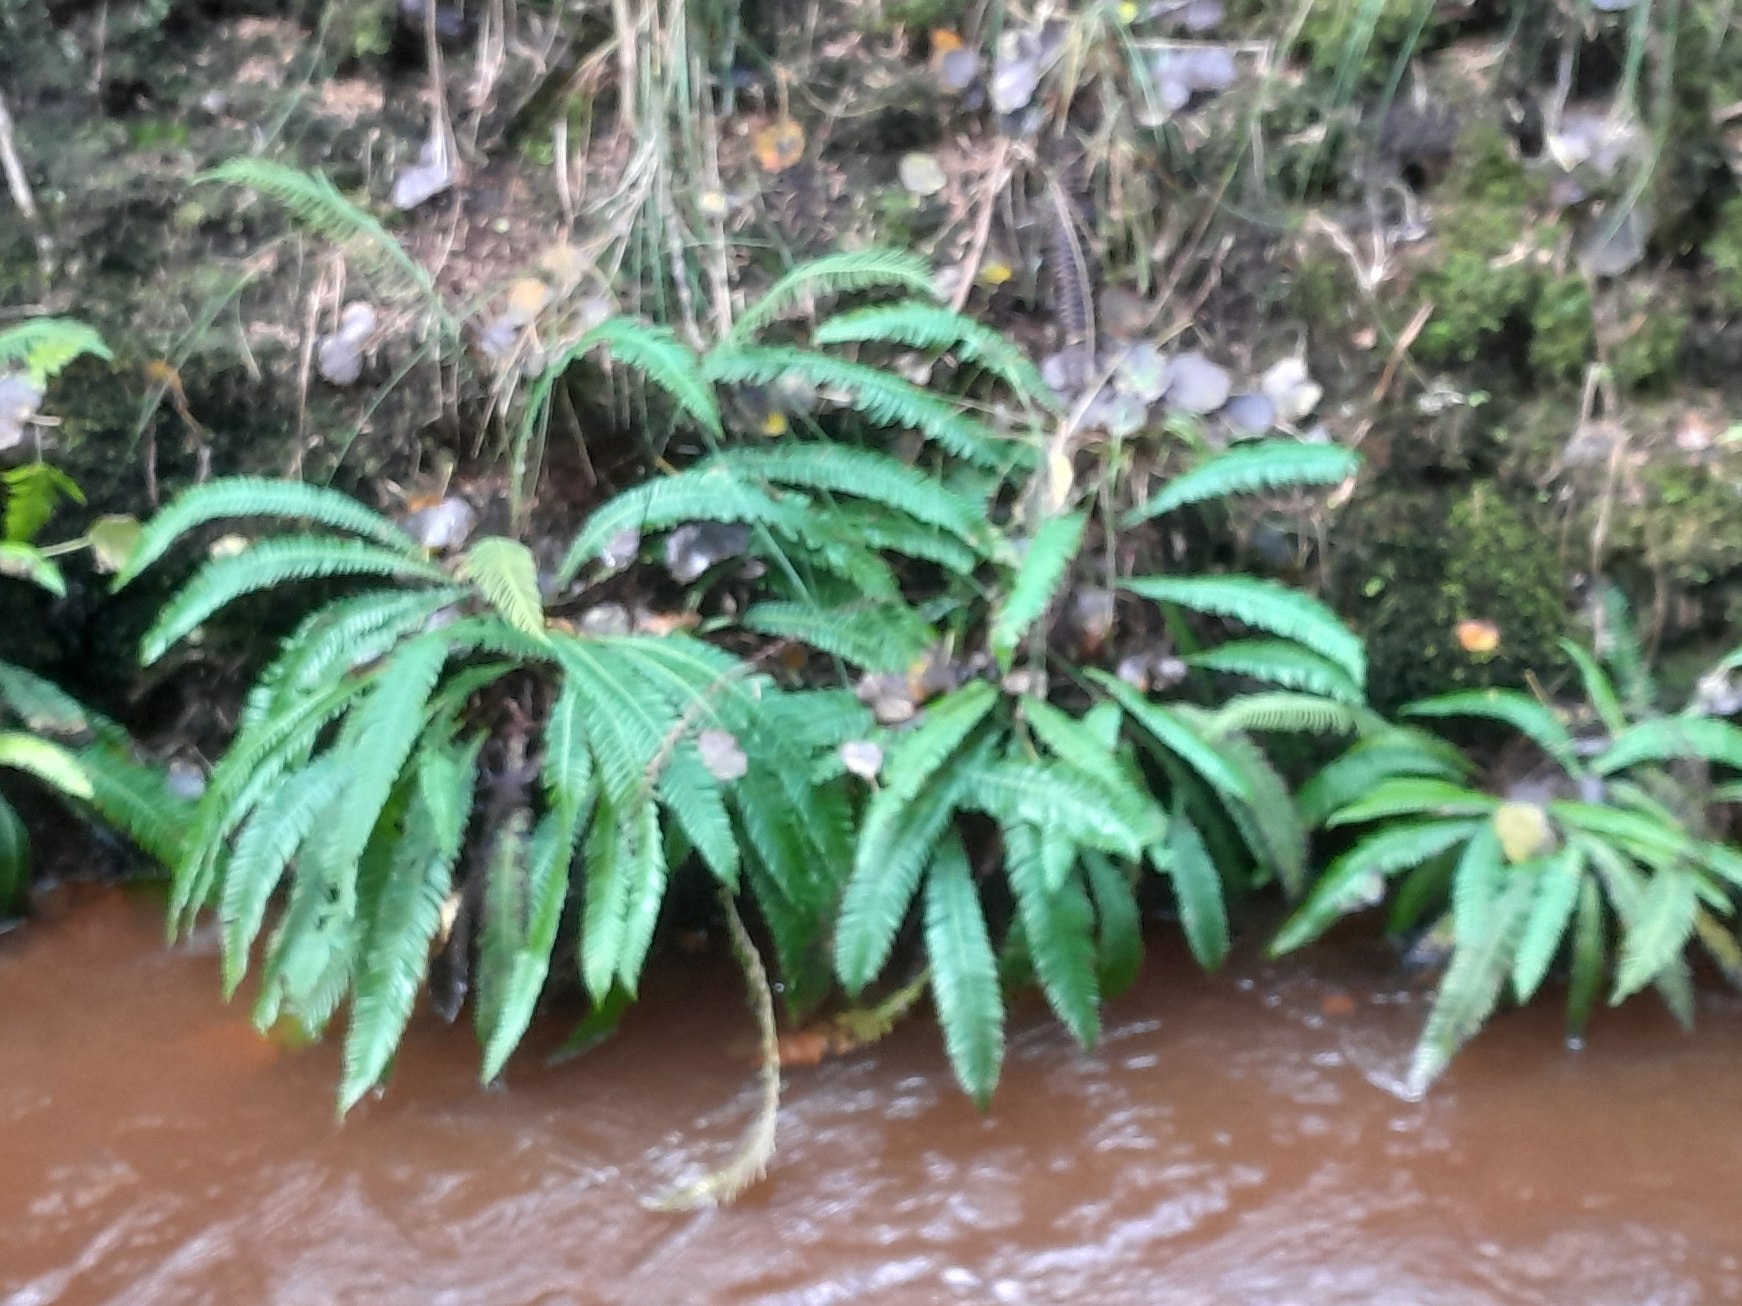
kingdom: Plantae
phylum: Tracheophyta
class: Polypodiopsida
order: Polypodiales
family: Blechnaceae
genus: Struthiopteris
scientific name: Struthiopteris spicant
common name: Kambregne
